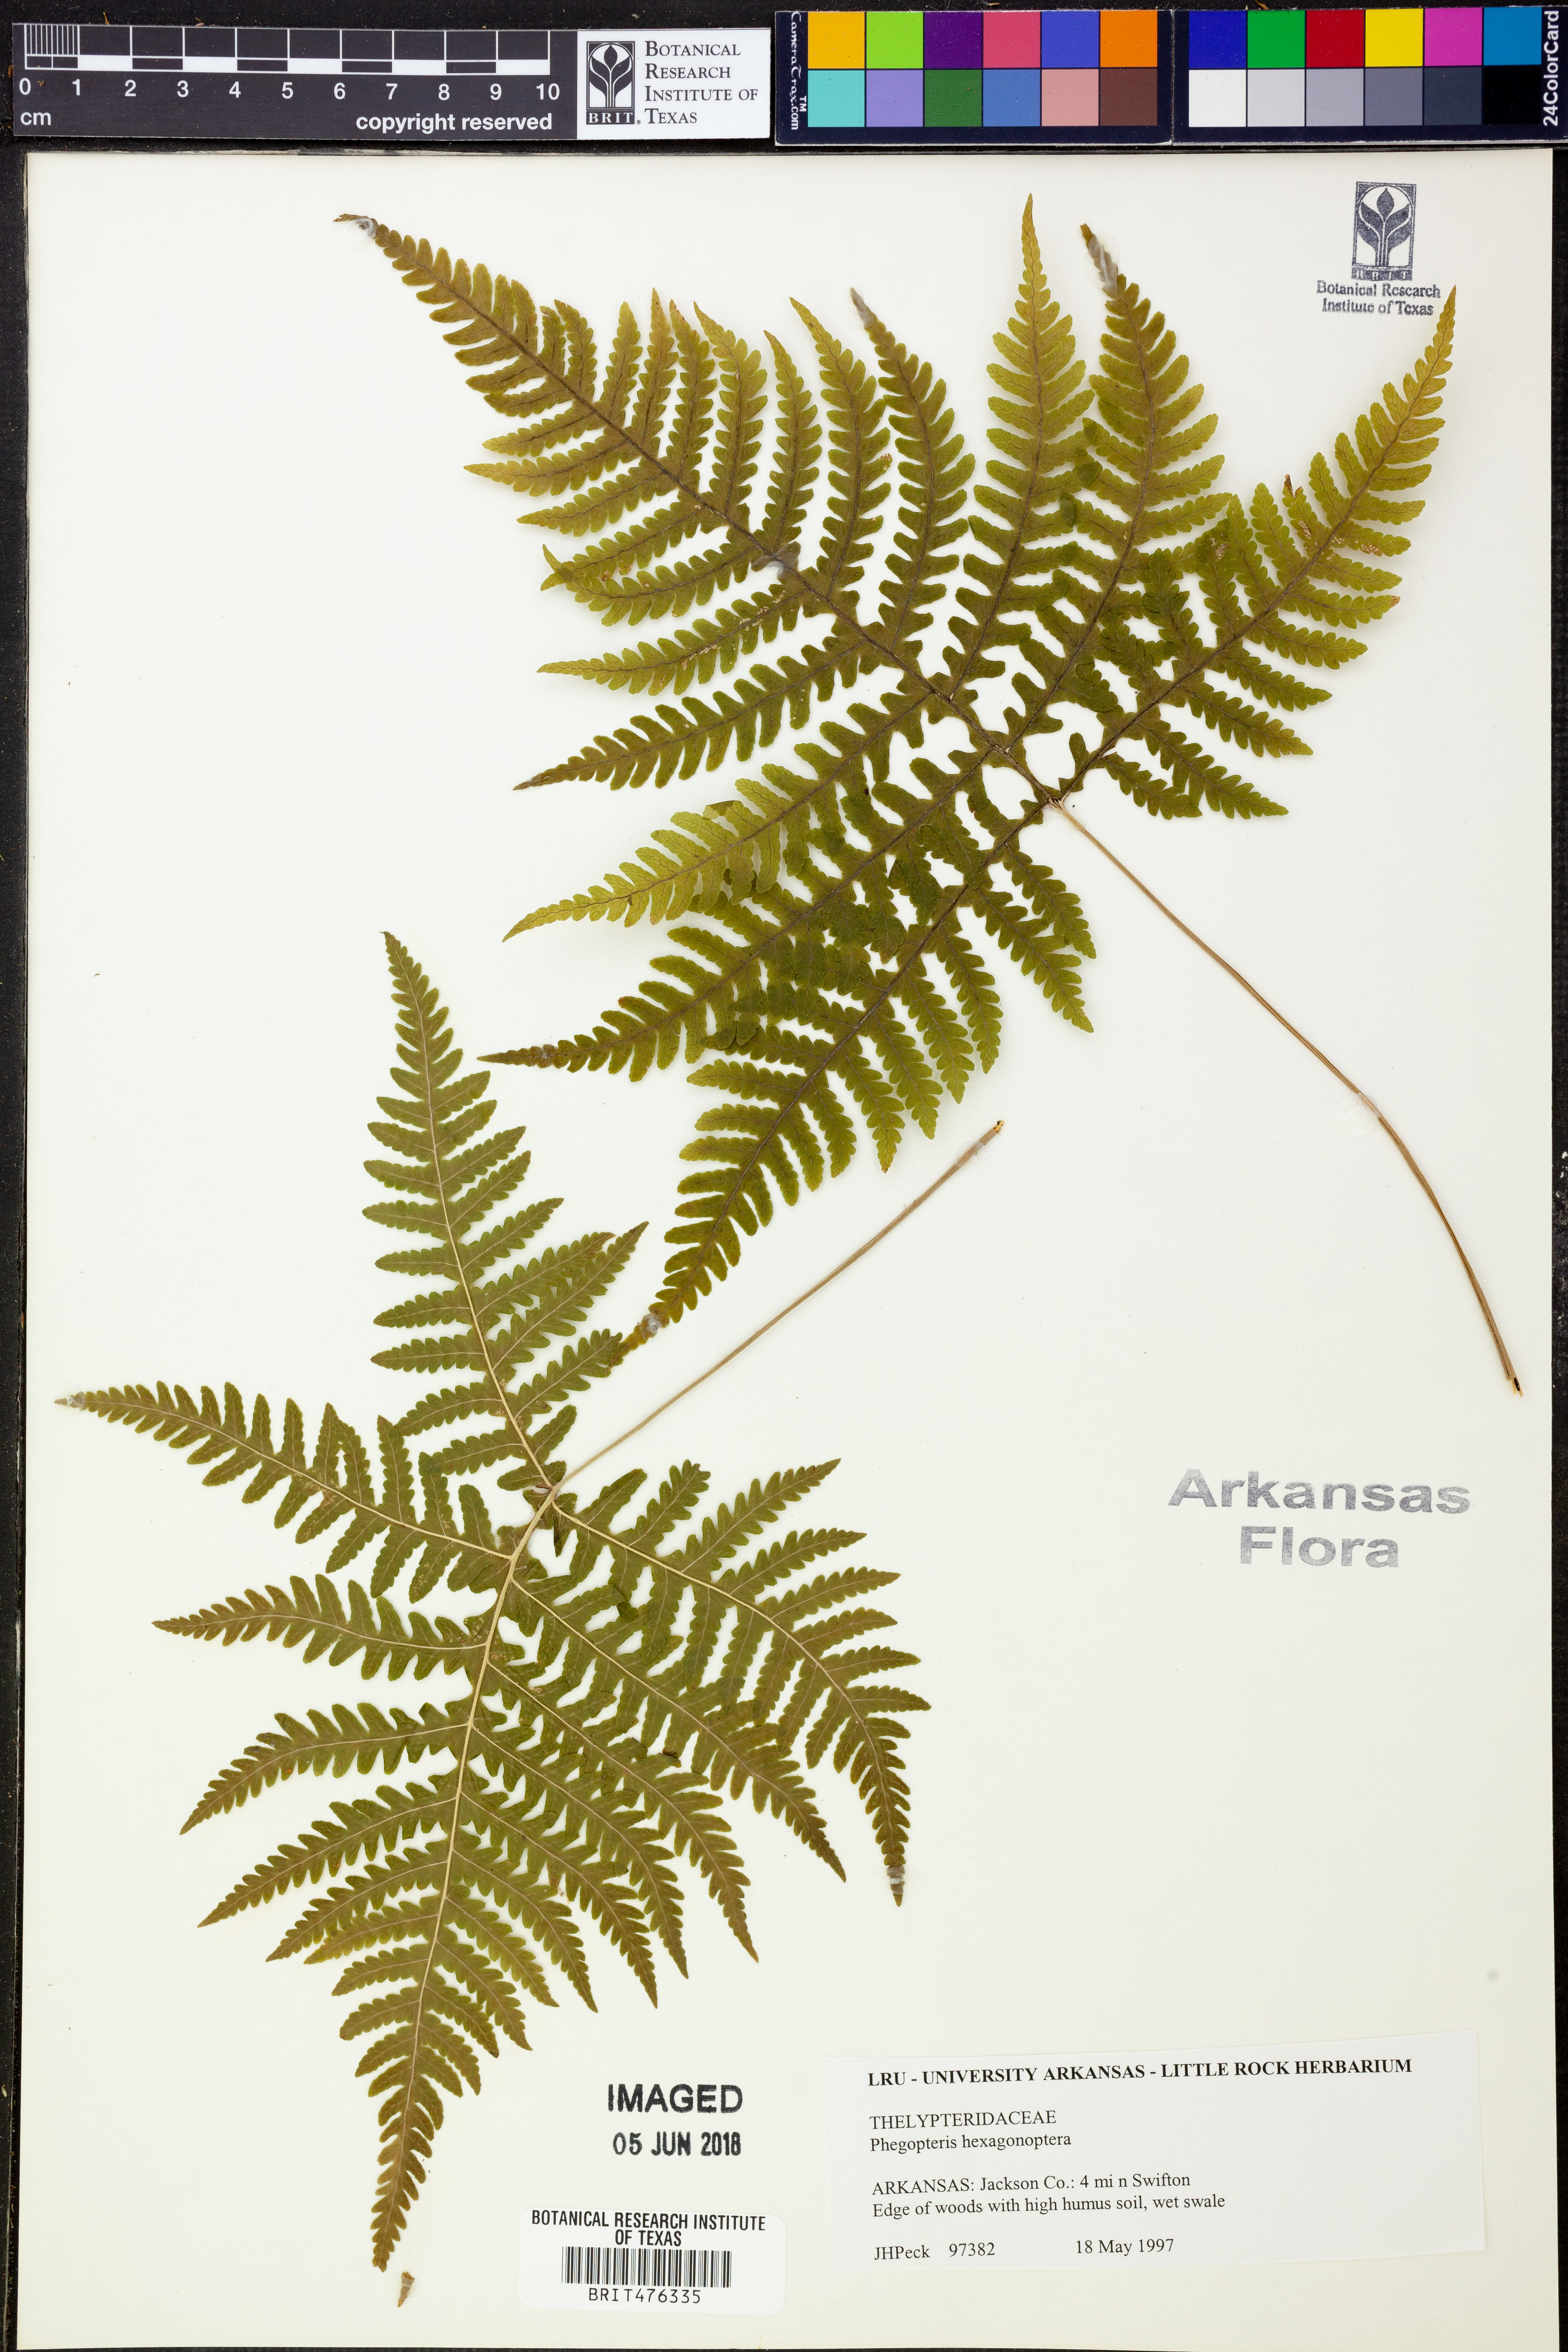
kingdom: Plantae
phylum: Tracheophyta
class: Polypodiopsida
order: Polypodiales
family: Thelypteridaceae
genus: Phegopteris
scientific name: Phegopteris hexagonoptera
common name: Broad beech fern
